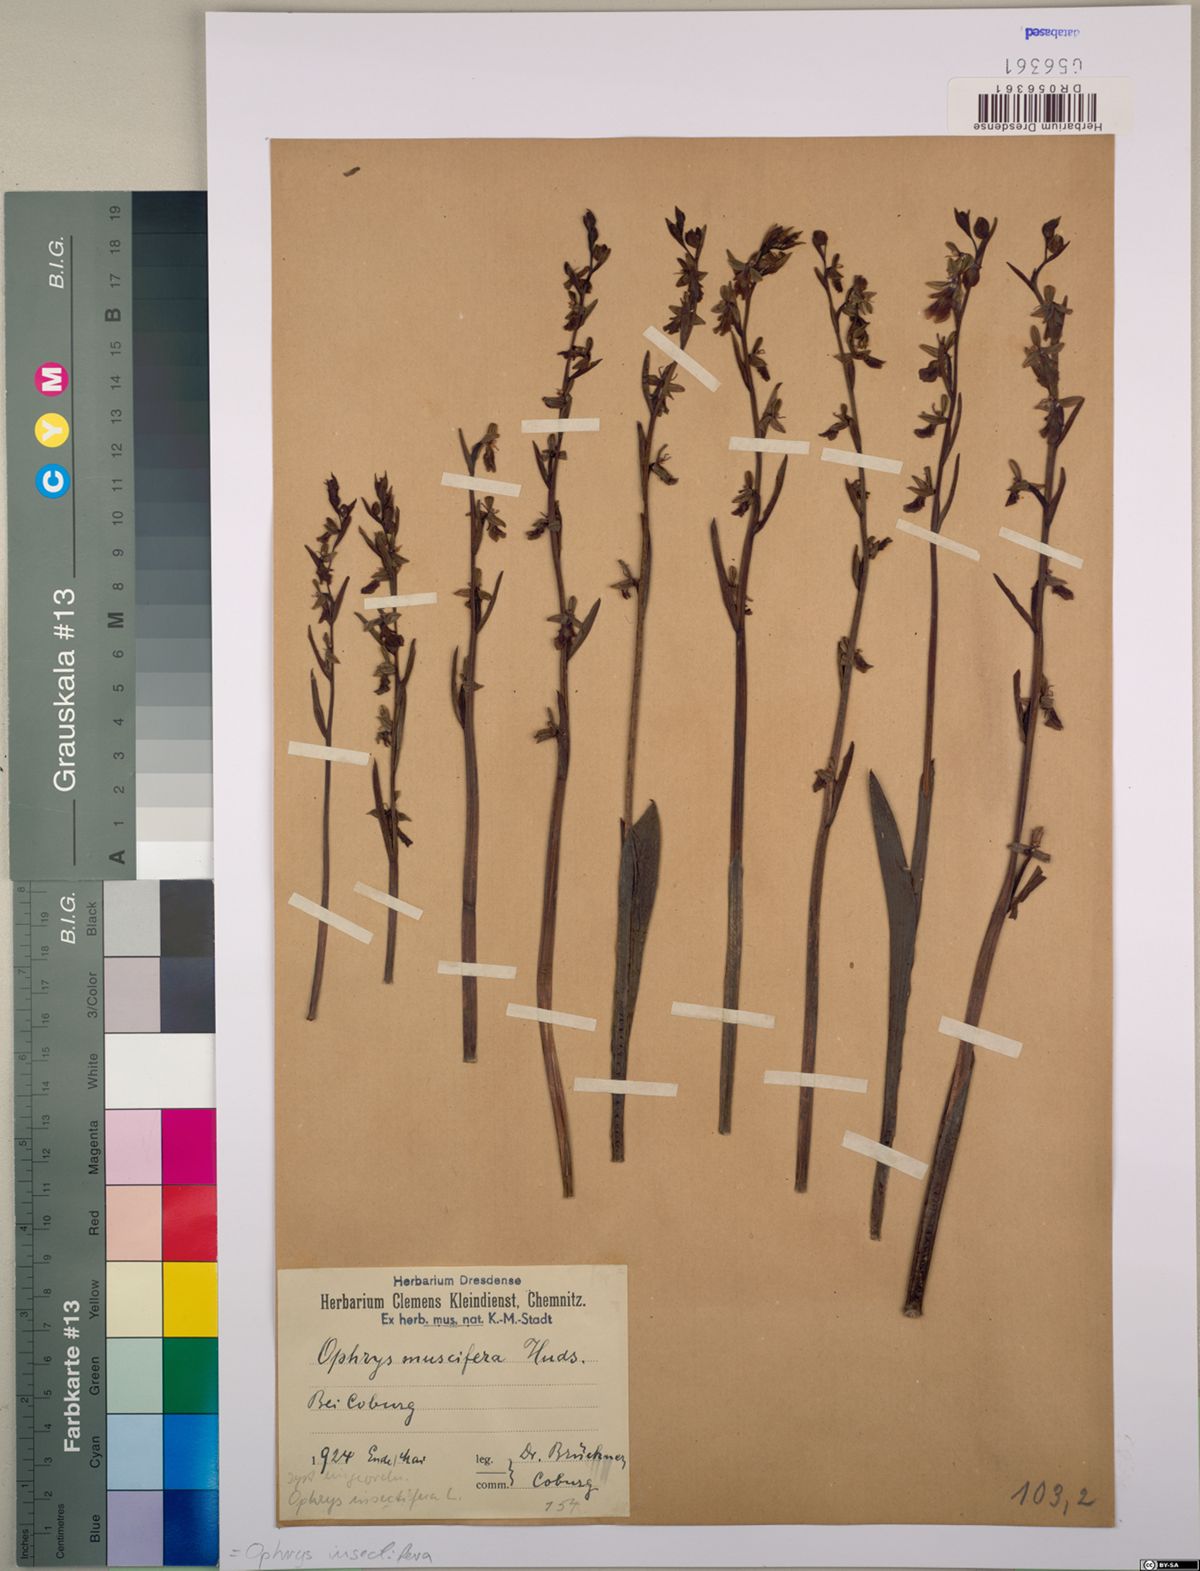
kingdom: Plantae
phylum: Tracheophyta
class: Liliopsida
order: Asparagales
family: Orchidaceae
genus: Ophrys
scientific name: Ophrys insectifera
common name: Fly orchid
